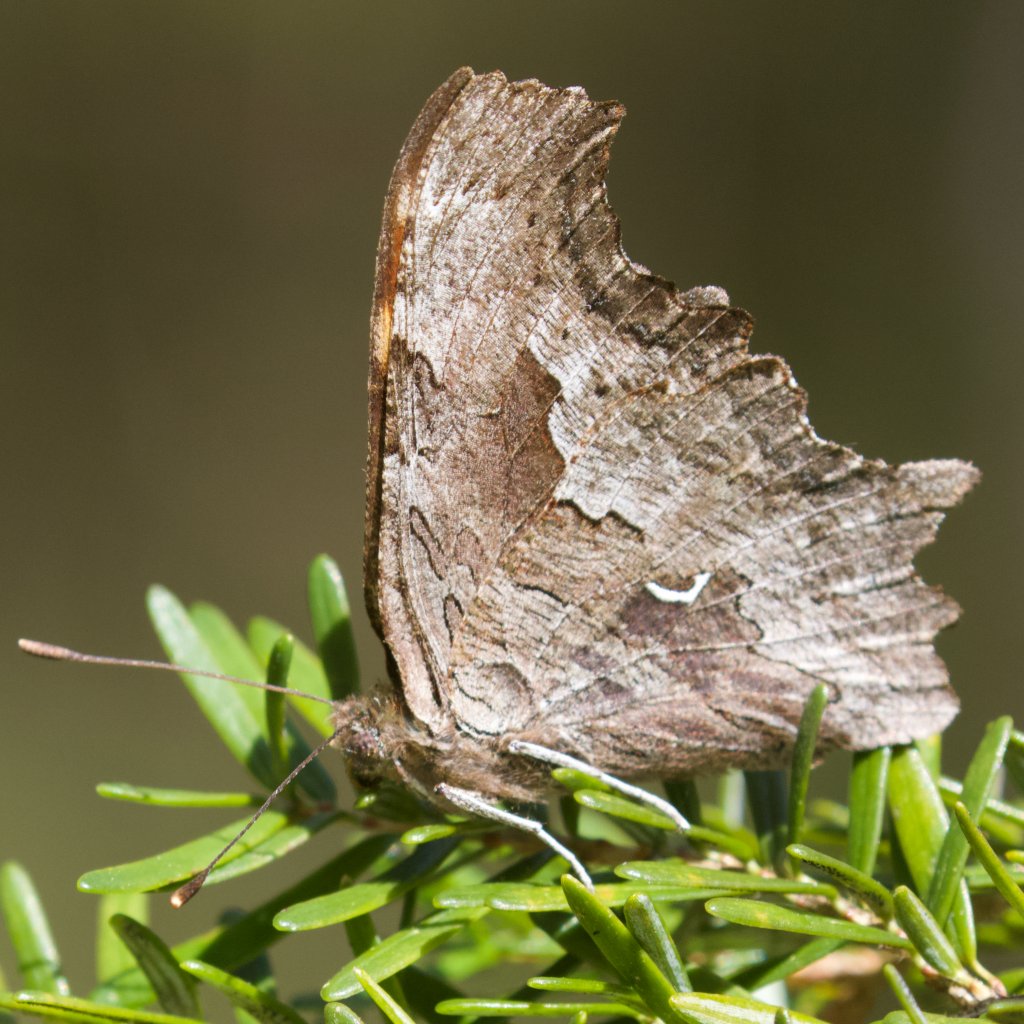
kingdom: Animalia
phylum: Arthropoda
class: Insecta
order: Lepidoptera
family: Nymphalidae
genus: Polygonia
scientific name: Polygonia gracilis
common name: Hoary Comma
